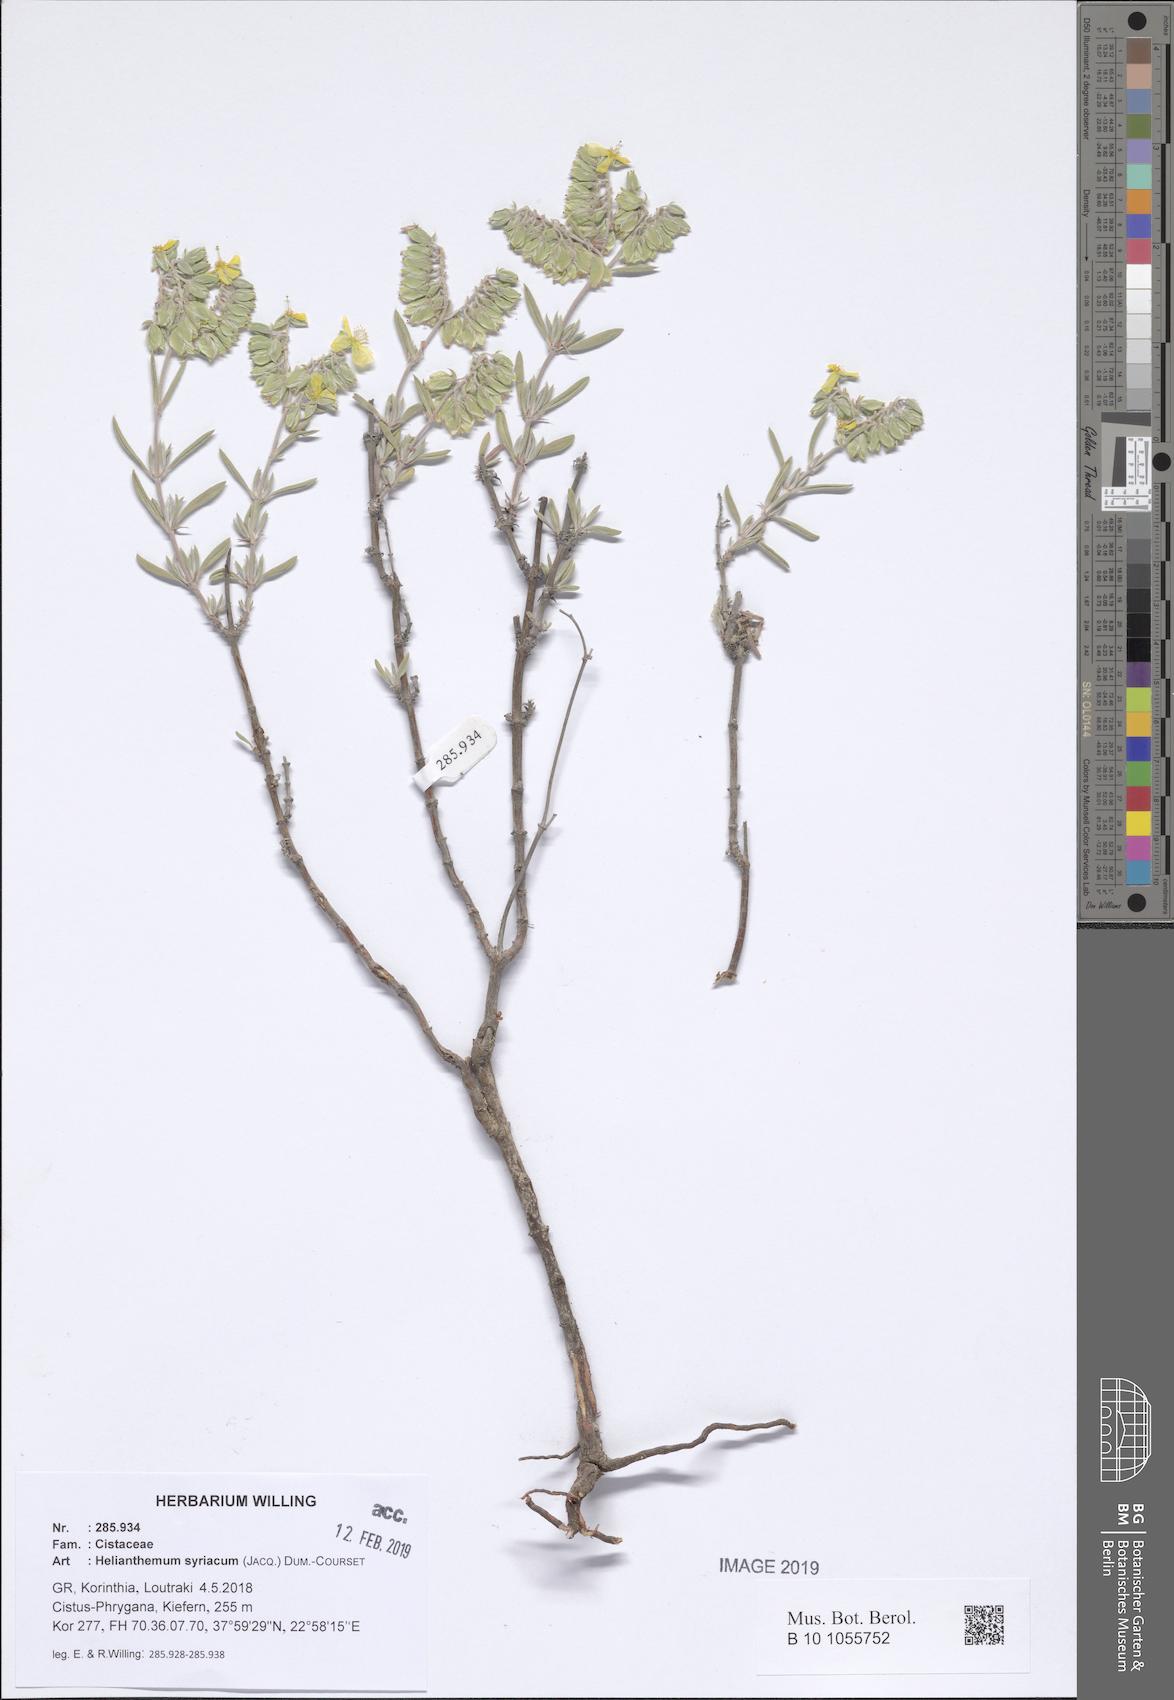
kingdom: Plantae
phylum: Tracheophyta
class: Magnoliopsida
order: Malvales
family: Cistaceae
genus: Helianthemum
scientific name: Helianthemum syriacum
